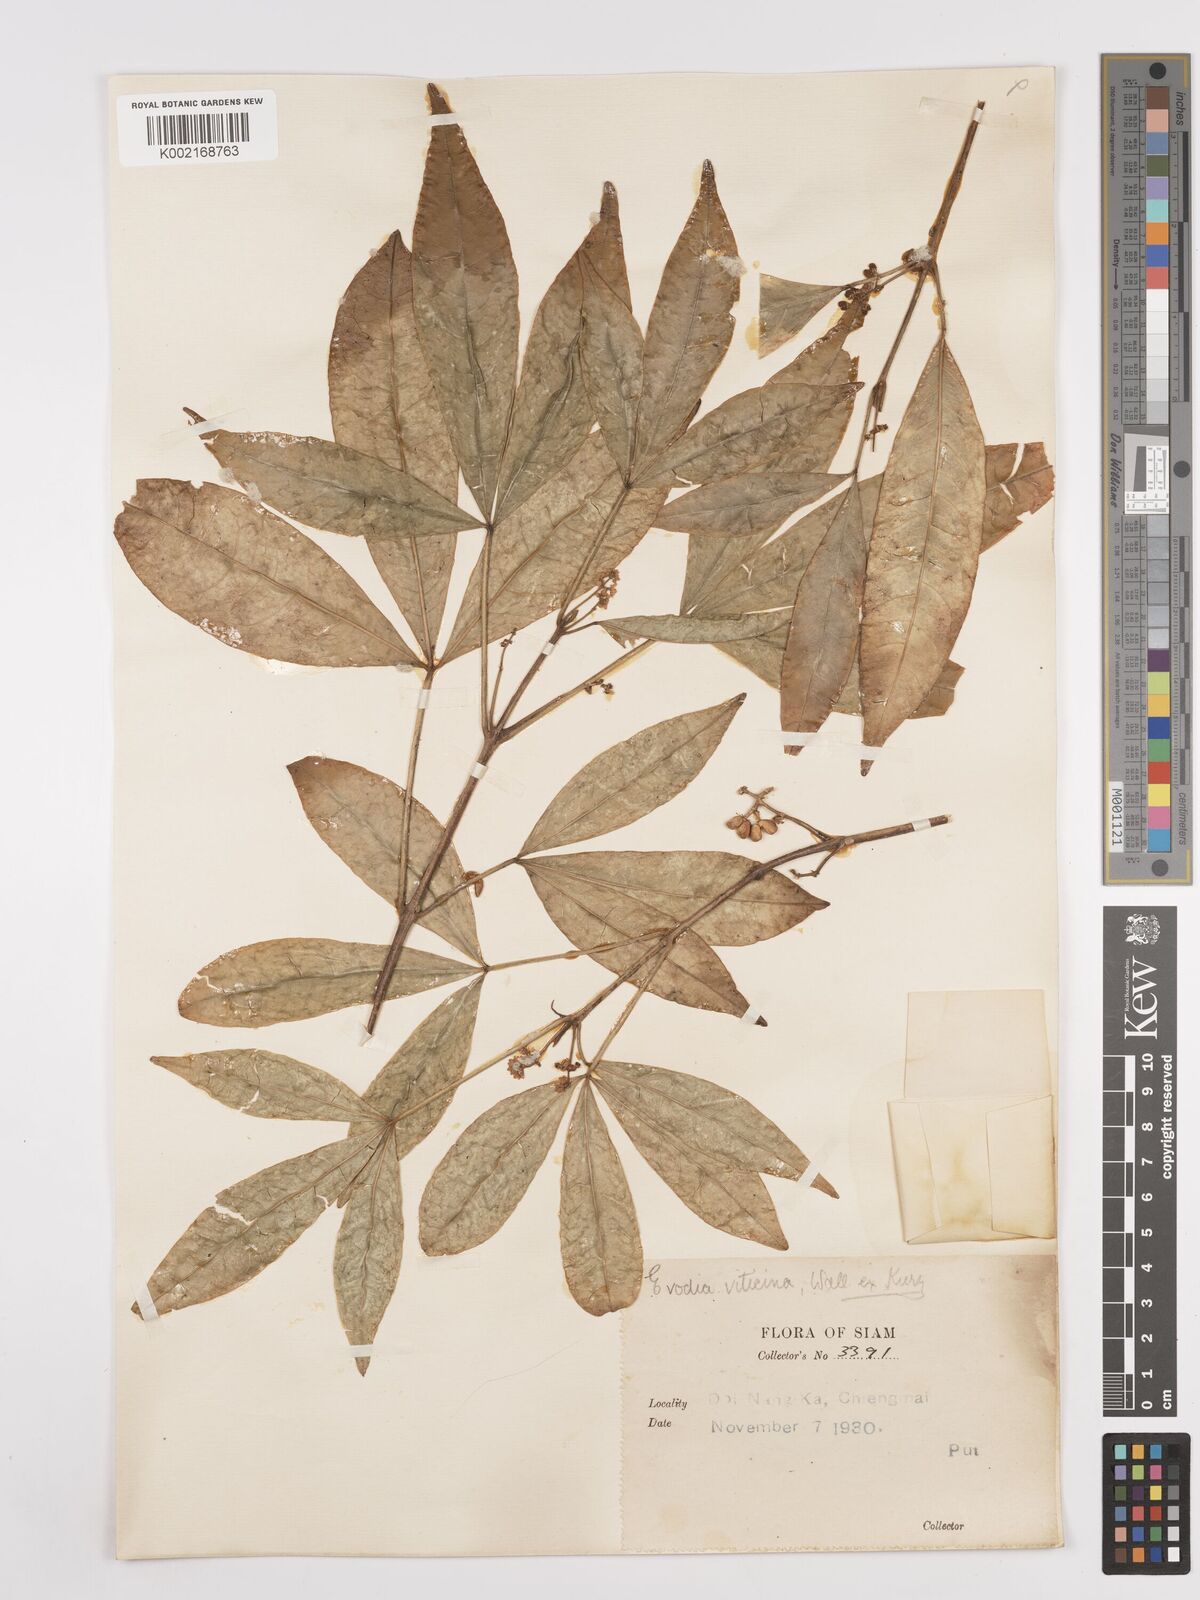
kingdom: Plantae
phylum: Tracheophyta
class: Magnoliopsida
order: Sapindales
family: Rutaceae
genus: Euodia
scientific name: Euodia
